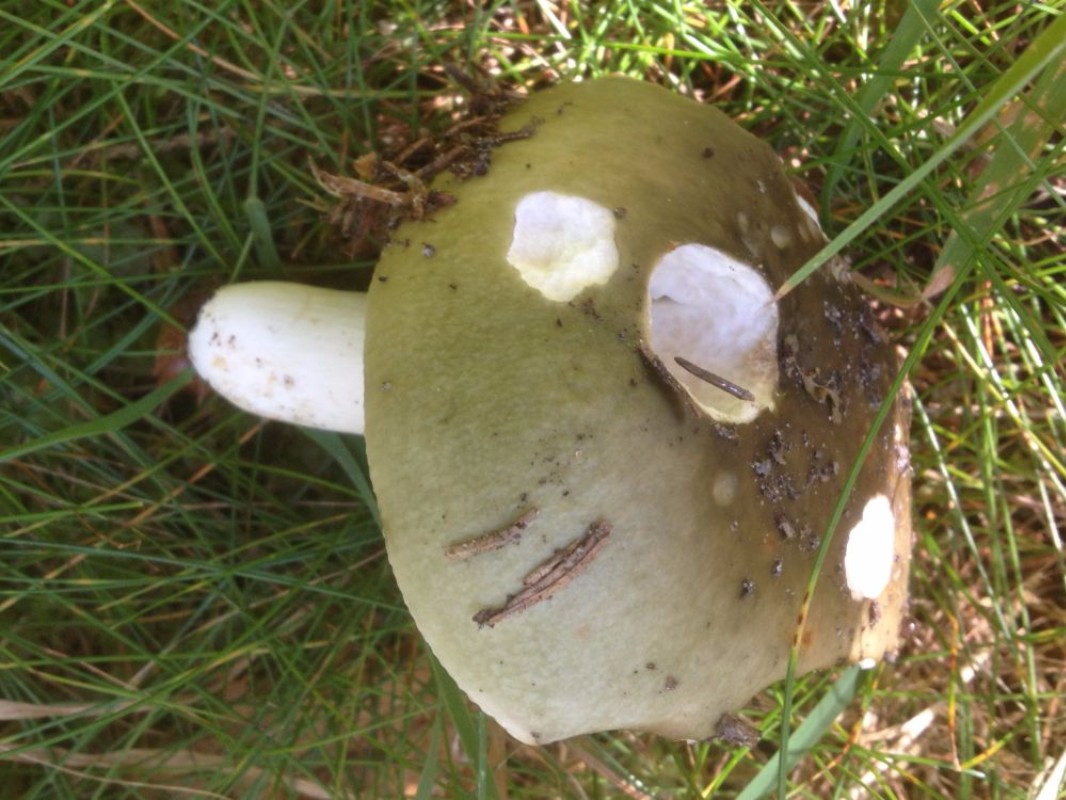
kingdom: Fungi
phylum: Basidiomycota
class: Agaricomycetes
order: Russulales
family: Russulaceae
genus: Russula
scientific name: Russula aeruginea
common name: græsgrøn skørhat
